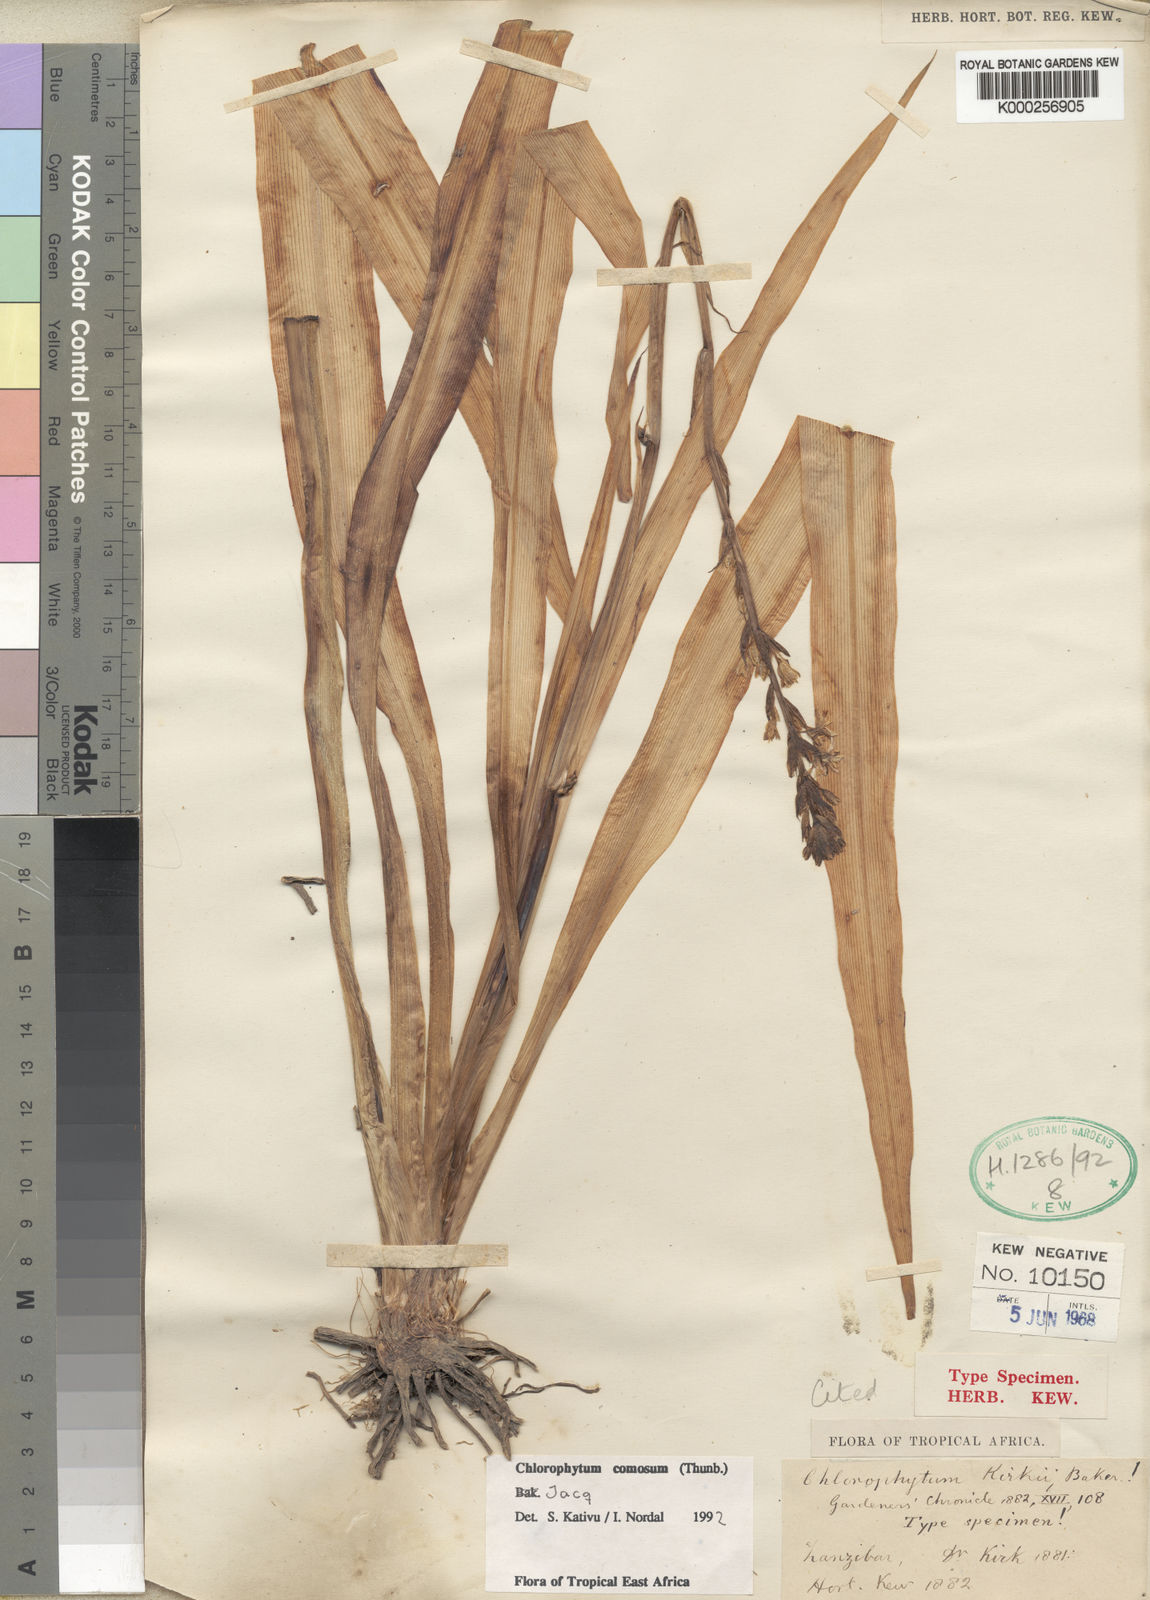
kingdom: Plantae
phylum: Tracheophyta
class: Liliopsida
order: Asparagales
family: Asparagaceae
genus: Chlorophytum
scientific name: Chlorophytum comosum
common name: Spider plant
